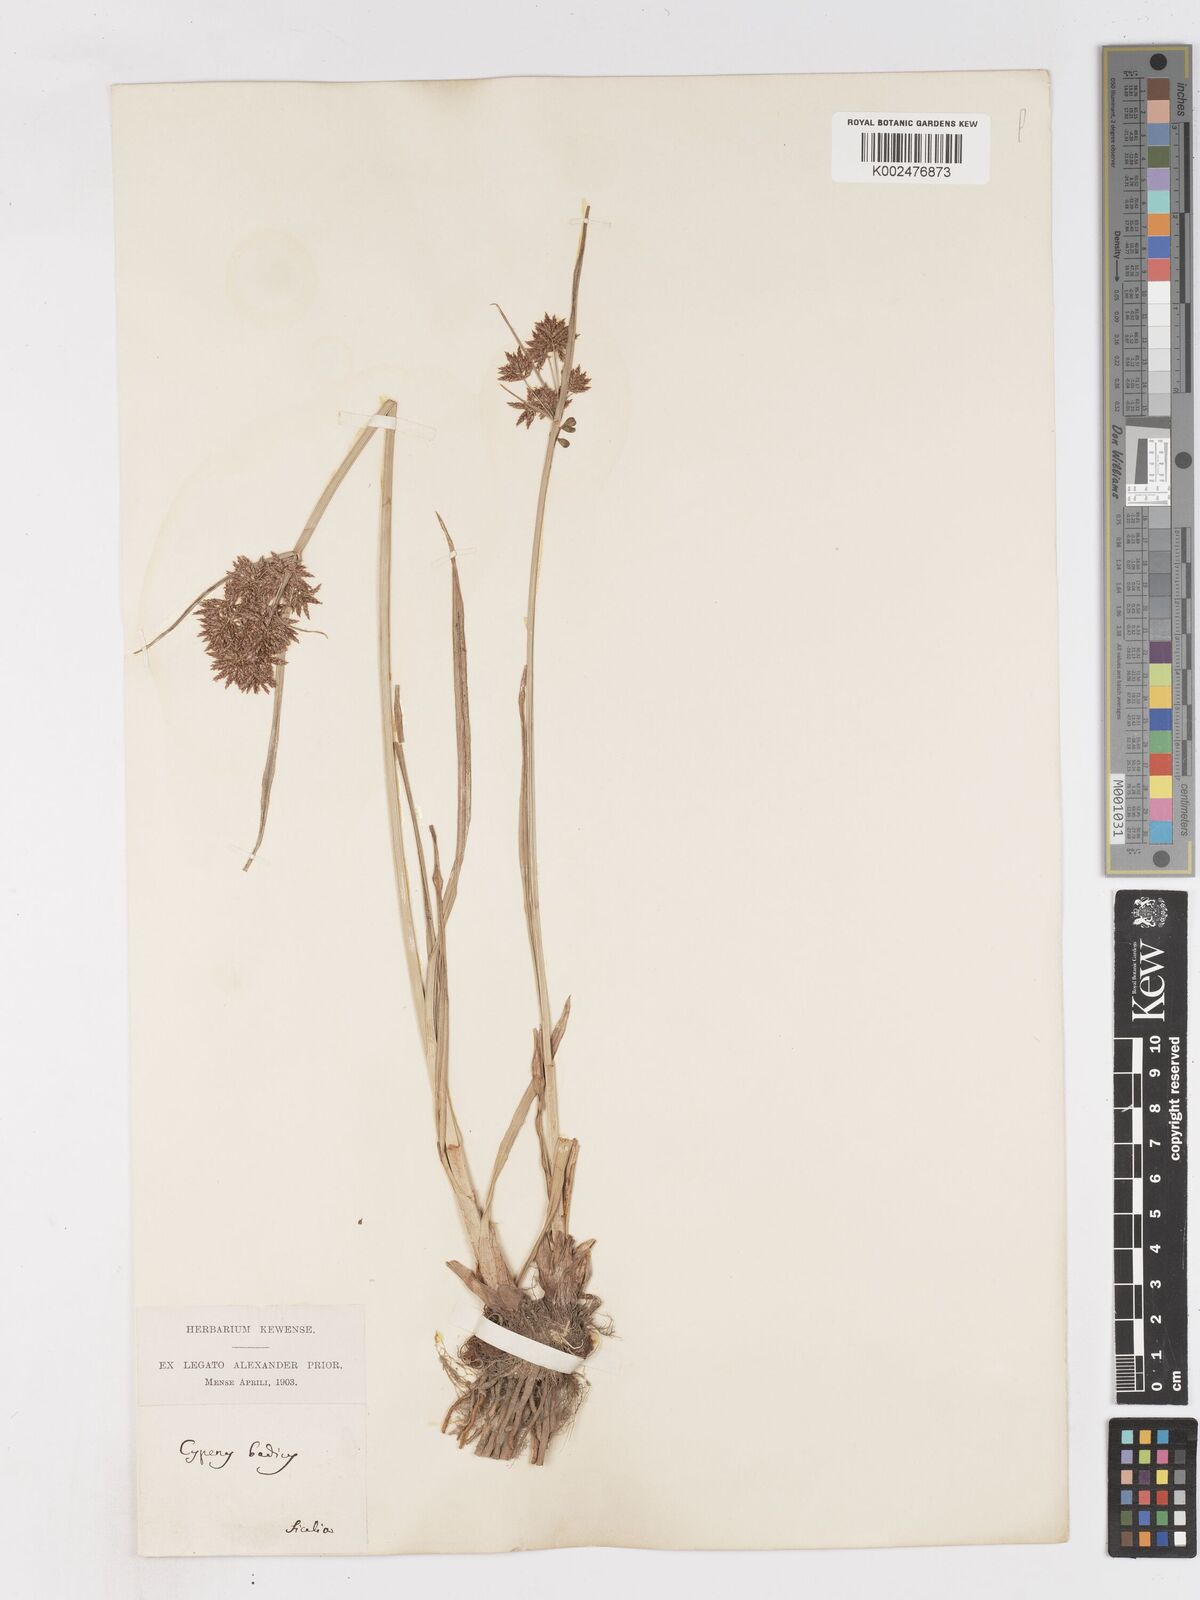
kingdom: Plantae
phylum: Tracheophyta
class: Liliopsida
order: Poales
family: Cyperaceae
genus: Cyperus
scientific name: Cyperus longus
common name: Galingale
